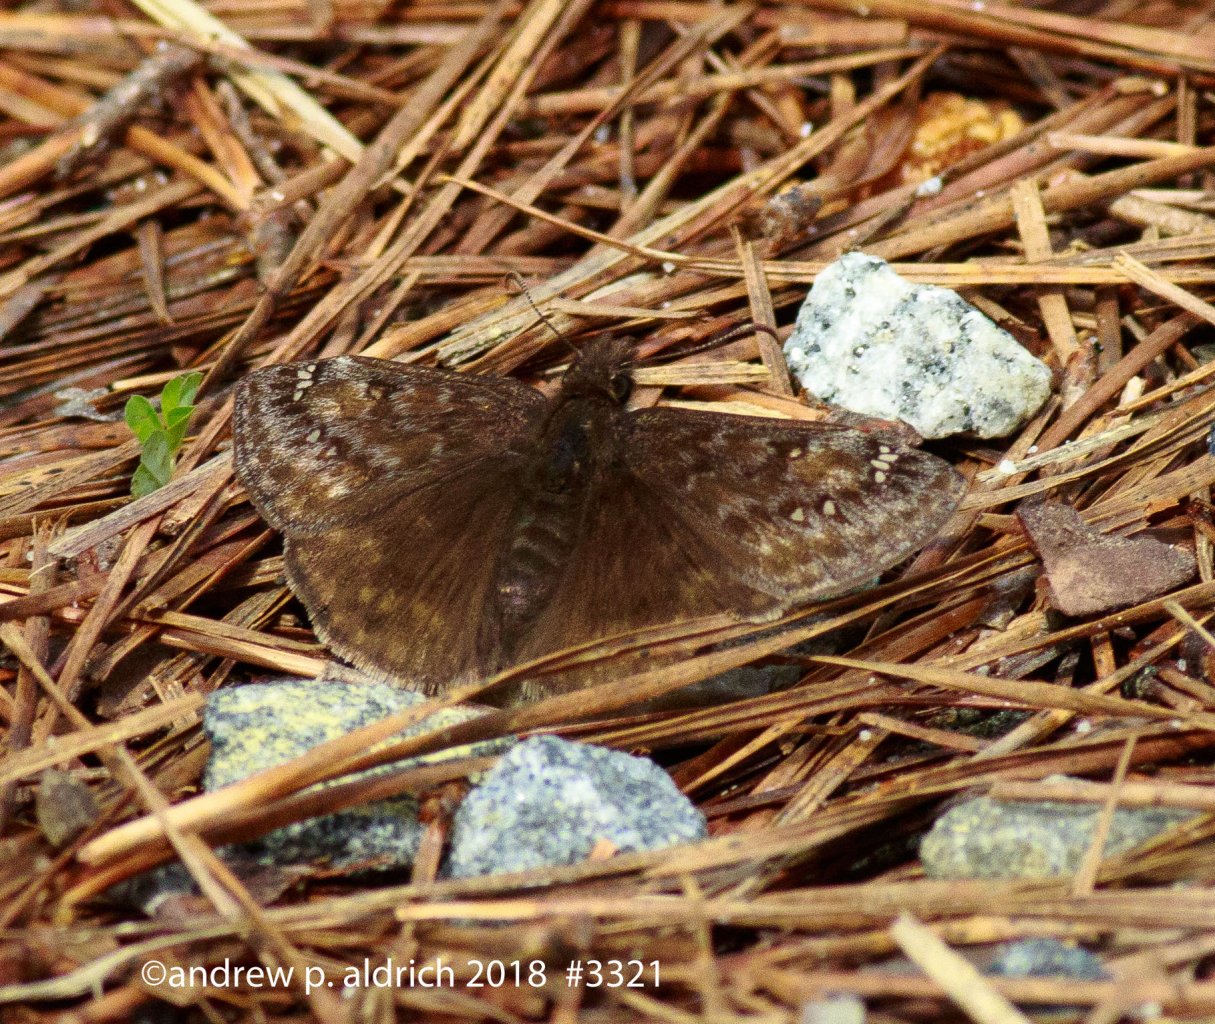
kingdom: Animalia
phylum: Arthropoda
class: Insecta
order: Lepidoptera
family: Hesperiidae
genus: Gesta
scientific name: Gesta
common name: Juvenal's Duskywing
